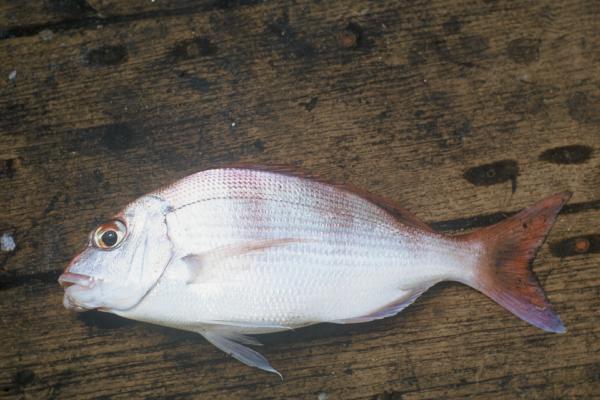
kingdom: Animalia
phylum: Chordata
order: Perciformes
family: Sparidae
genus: Cheimerius
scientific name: Cheimerius nufar
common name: Soldier
